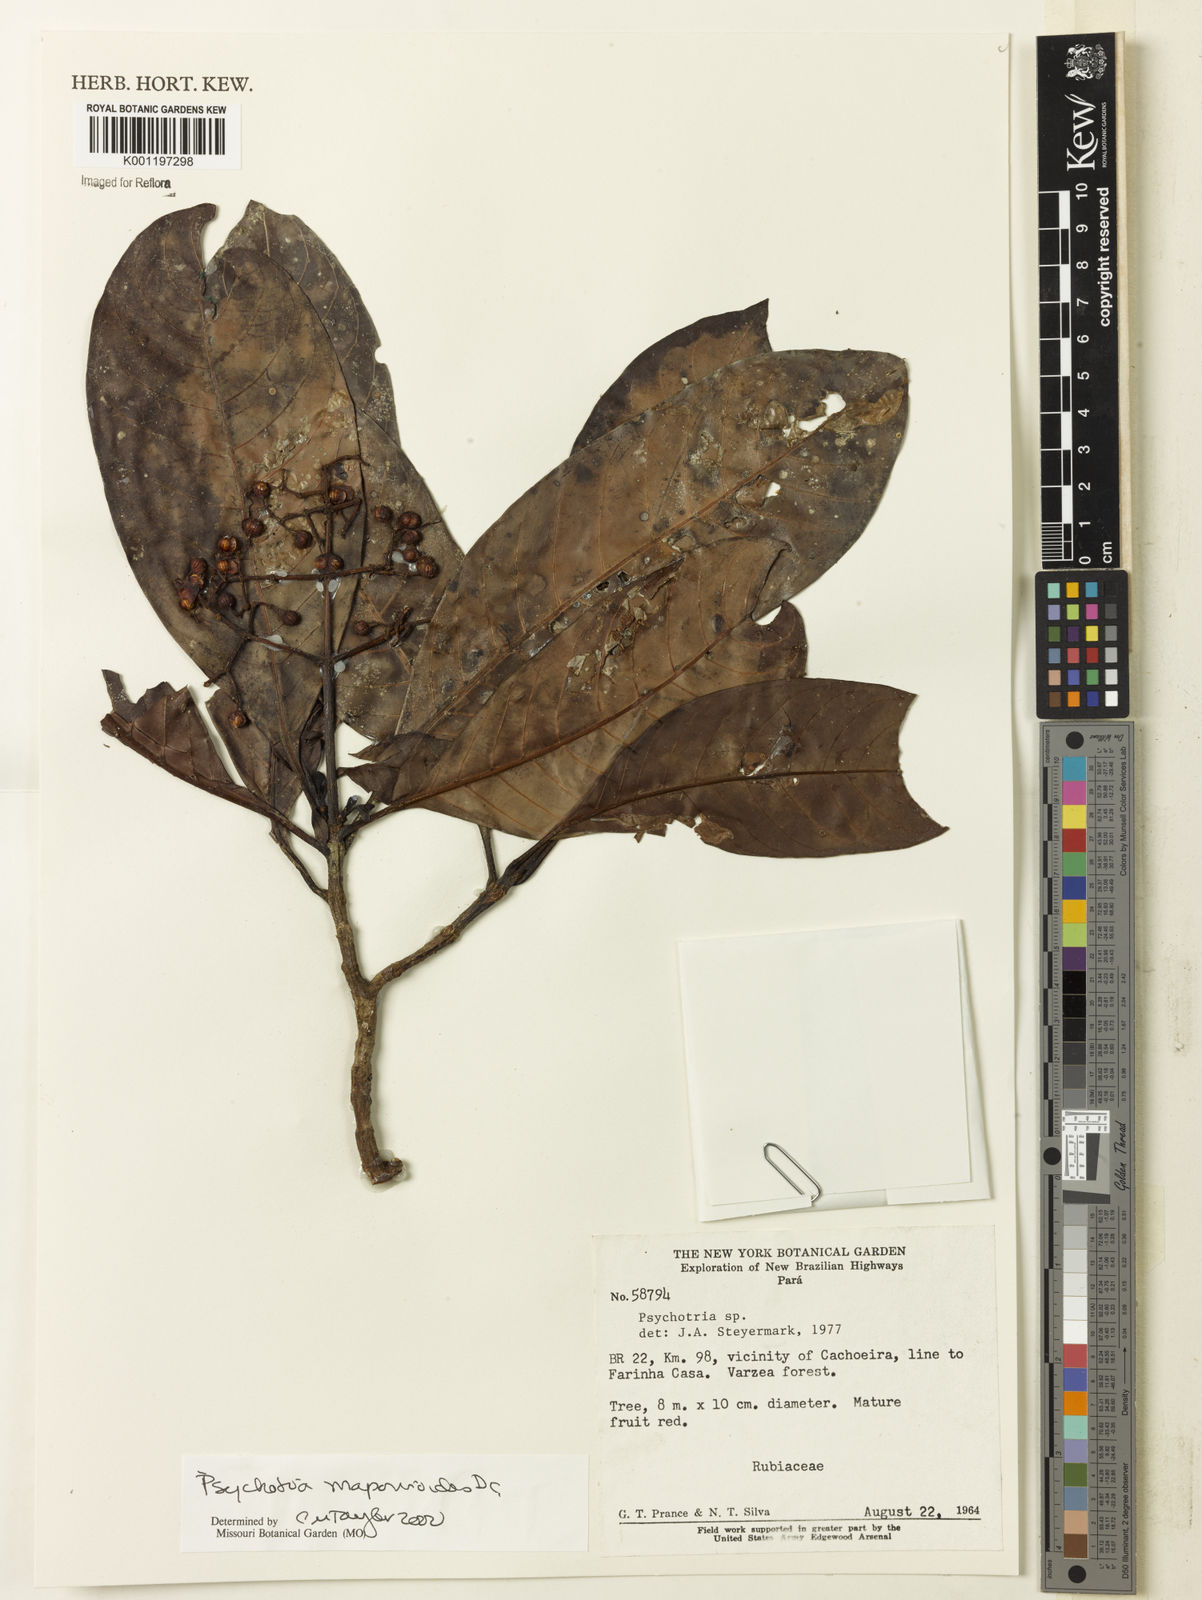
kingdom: Plantae
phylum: Tracheophyta
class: Magnoliopsida
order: Gentianales
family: Rubiaceae
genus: Psychotria
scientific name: Psychotria pedunculosa
